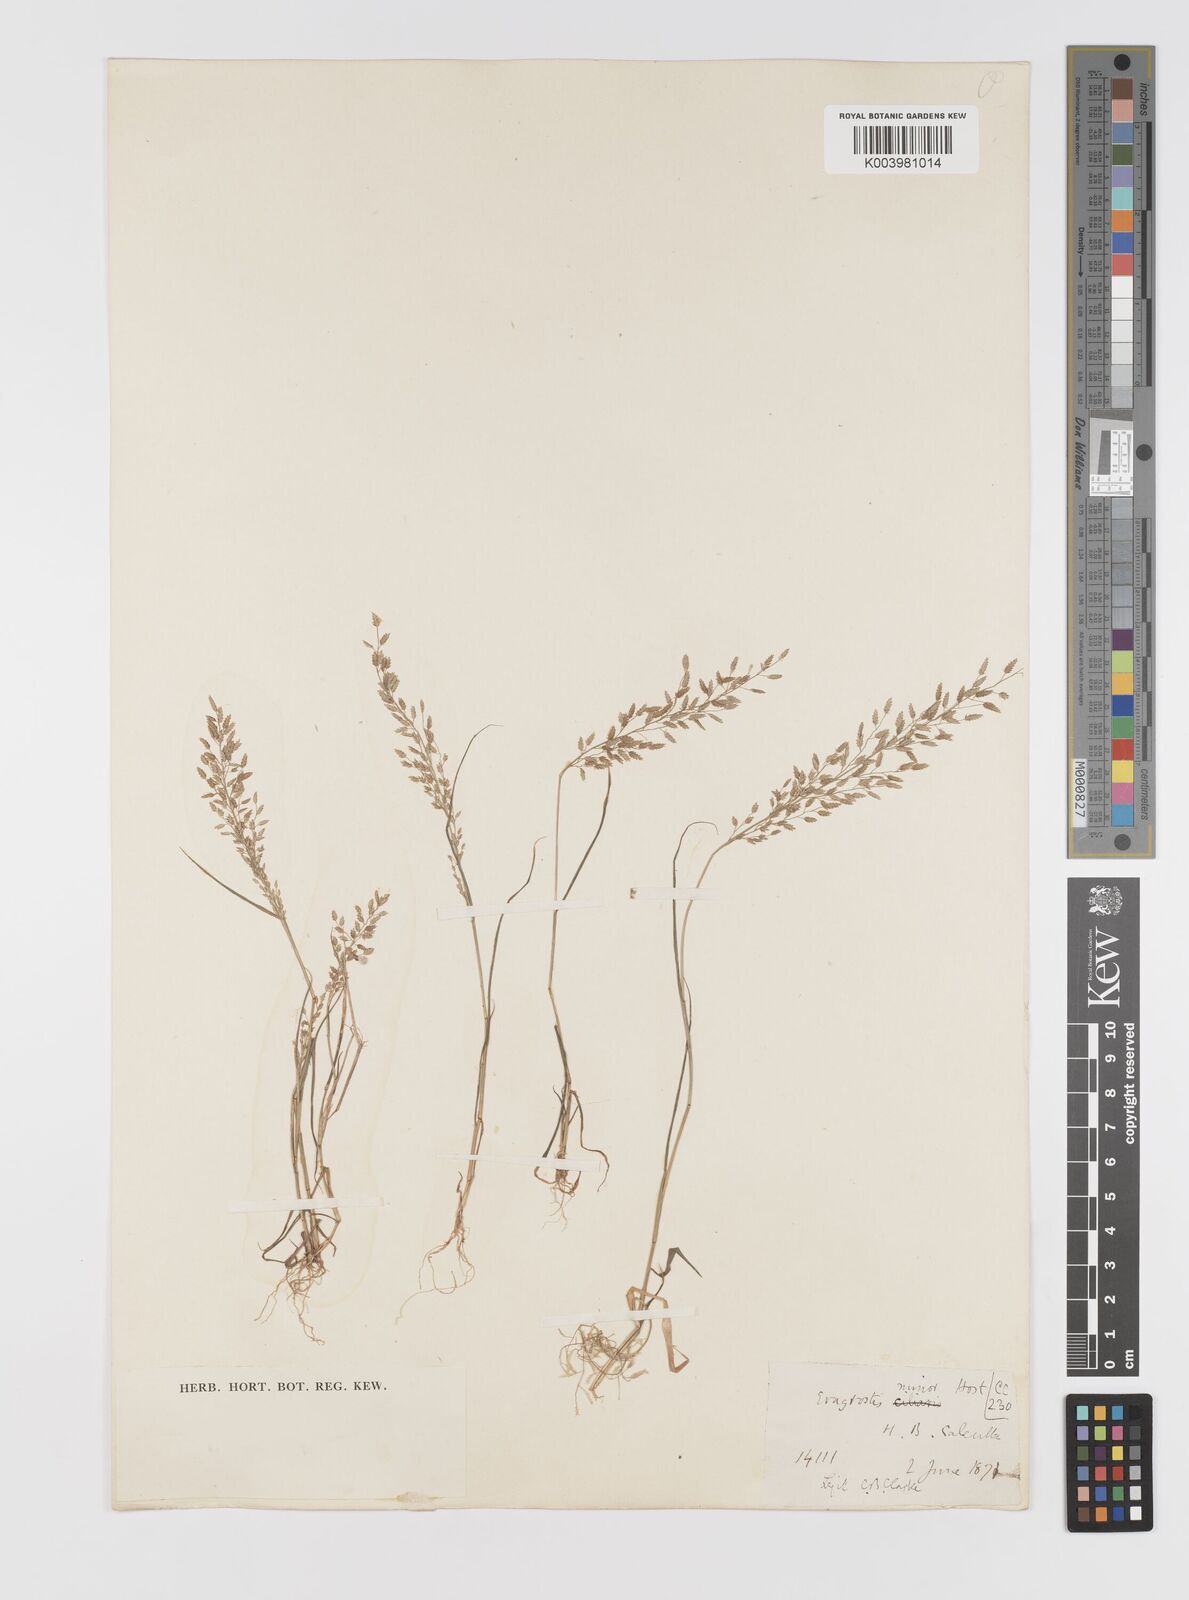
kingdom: Plantae
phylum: Tracheophyta
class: Liliopsida
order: Poales
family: Poaceae
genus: Eragrostis
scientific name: Eragrostis minor
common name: Small love-grass
